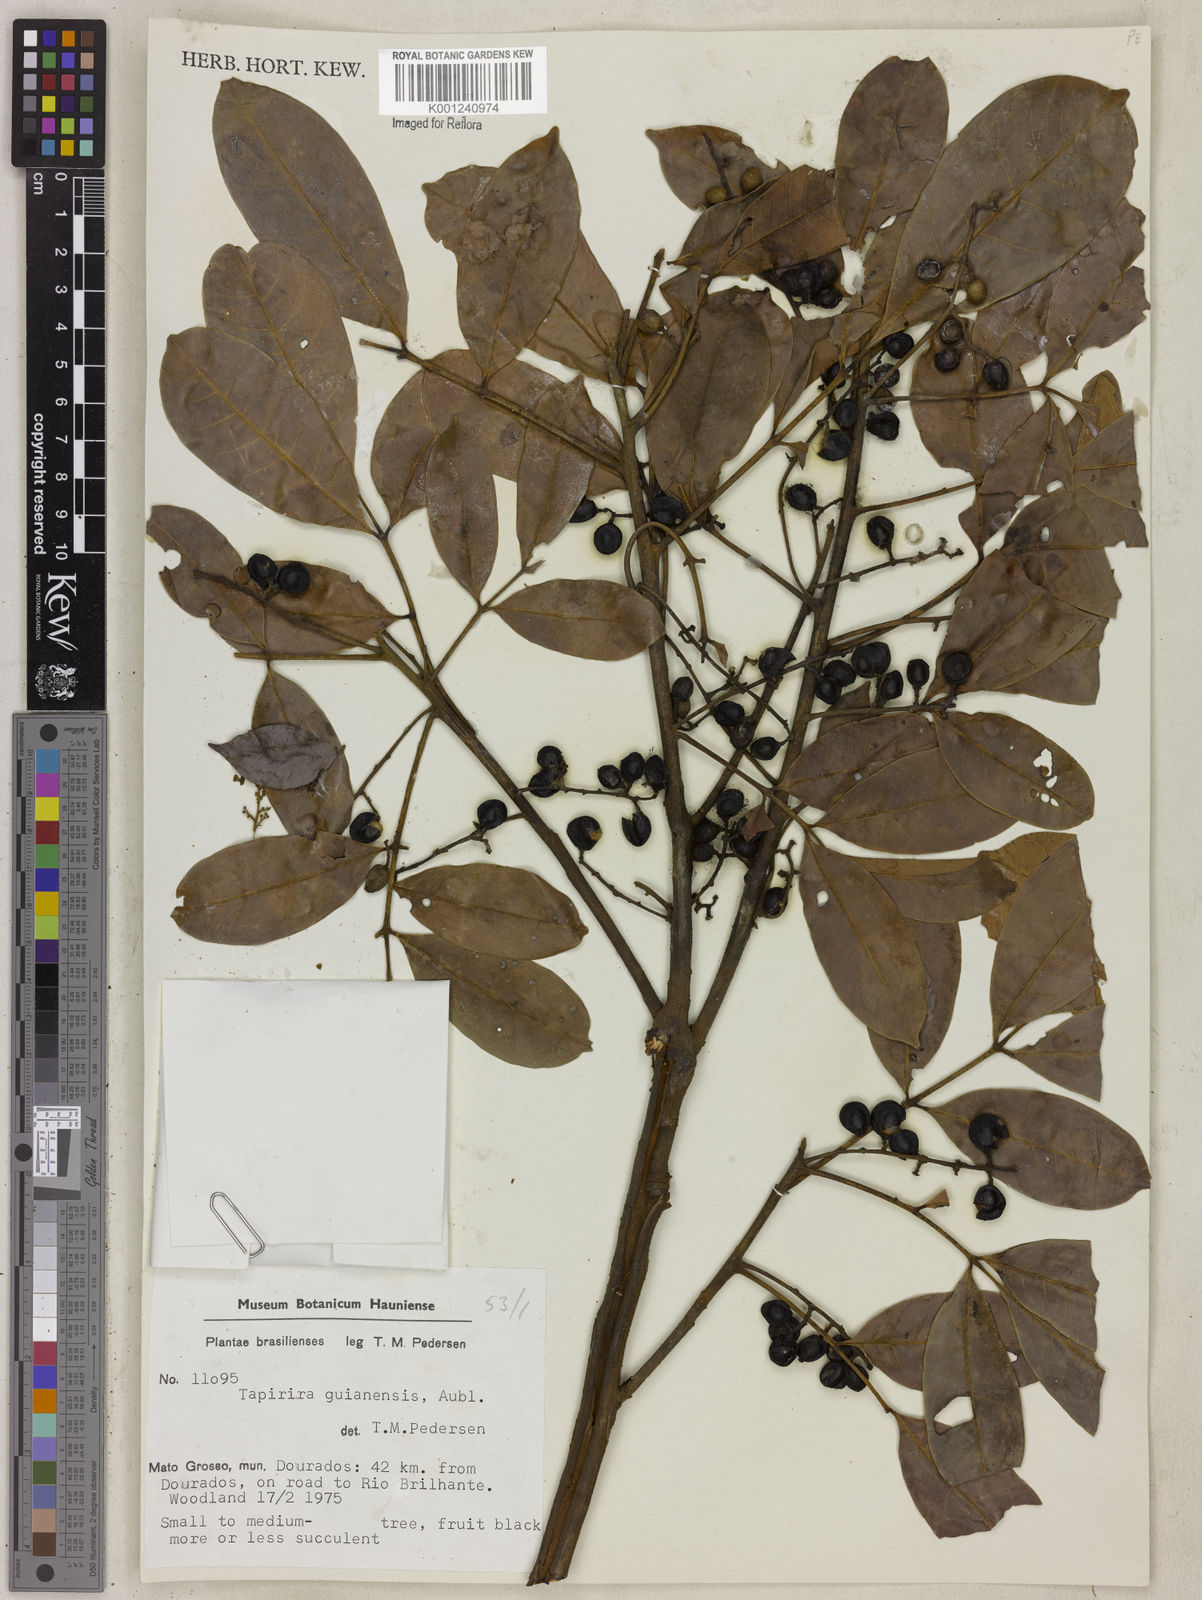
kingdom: Plantae
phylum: Tracheophyta
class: Magnoliopsida
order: Sapindales
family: Anacardiaceae
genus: Tapirira
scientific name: Tapirira guianensis
